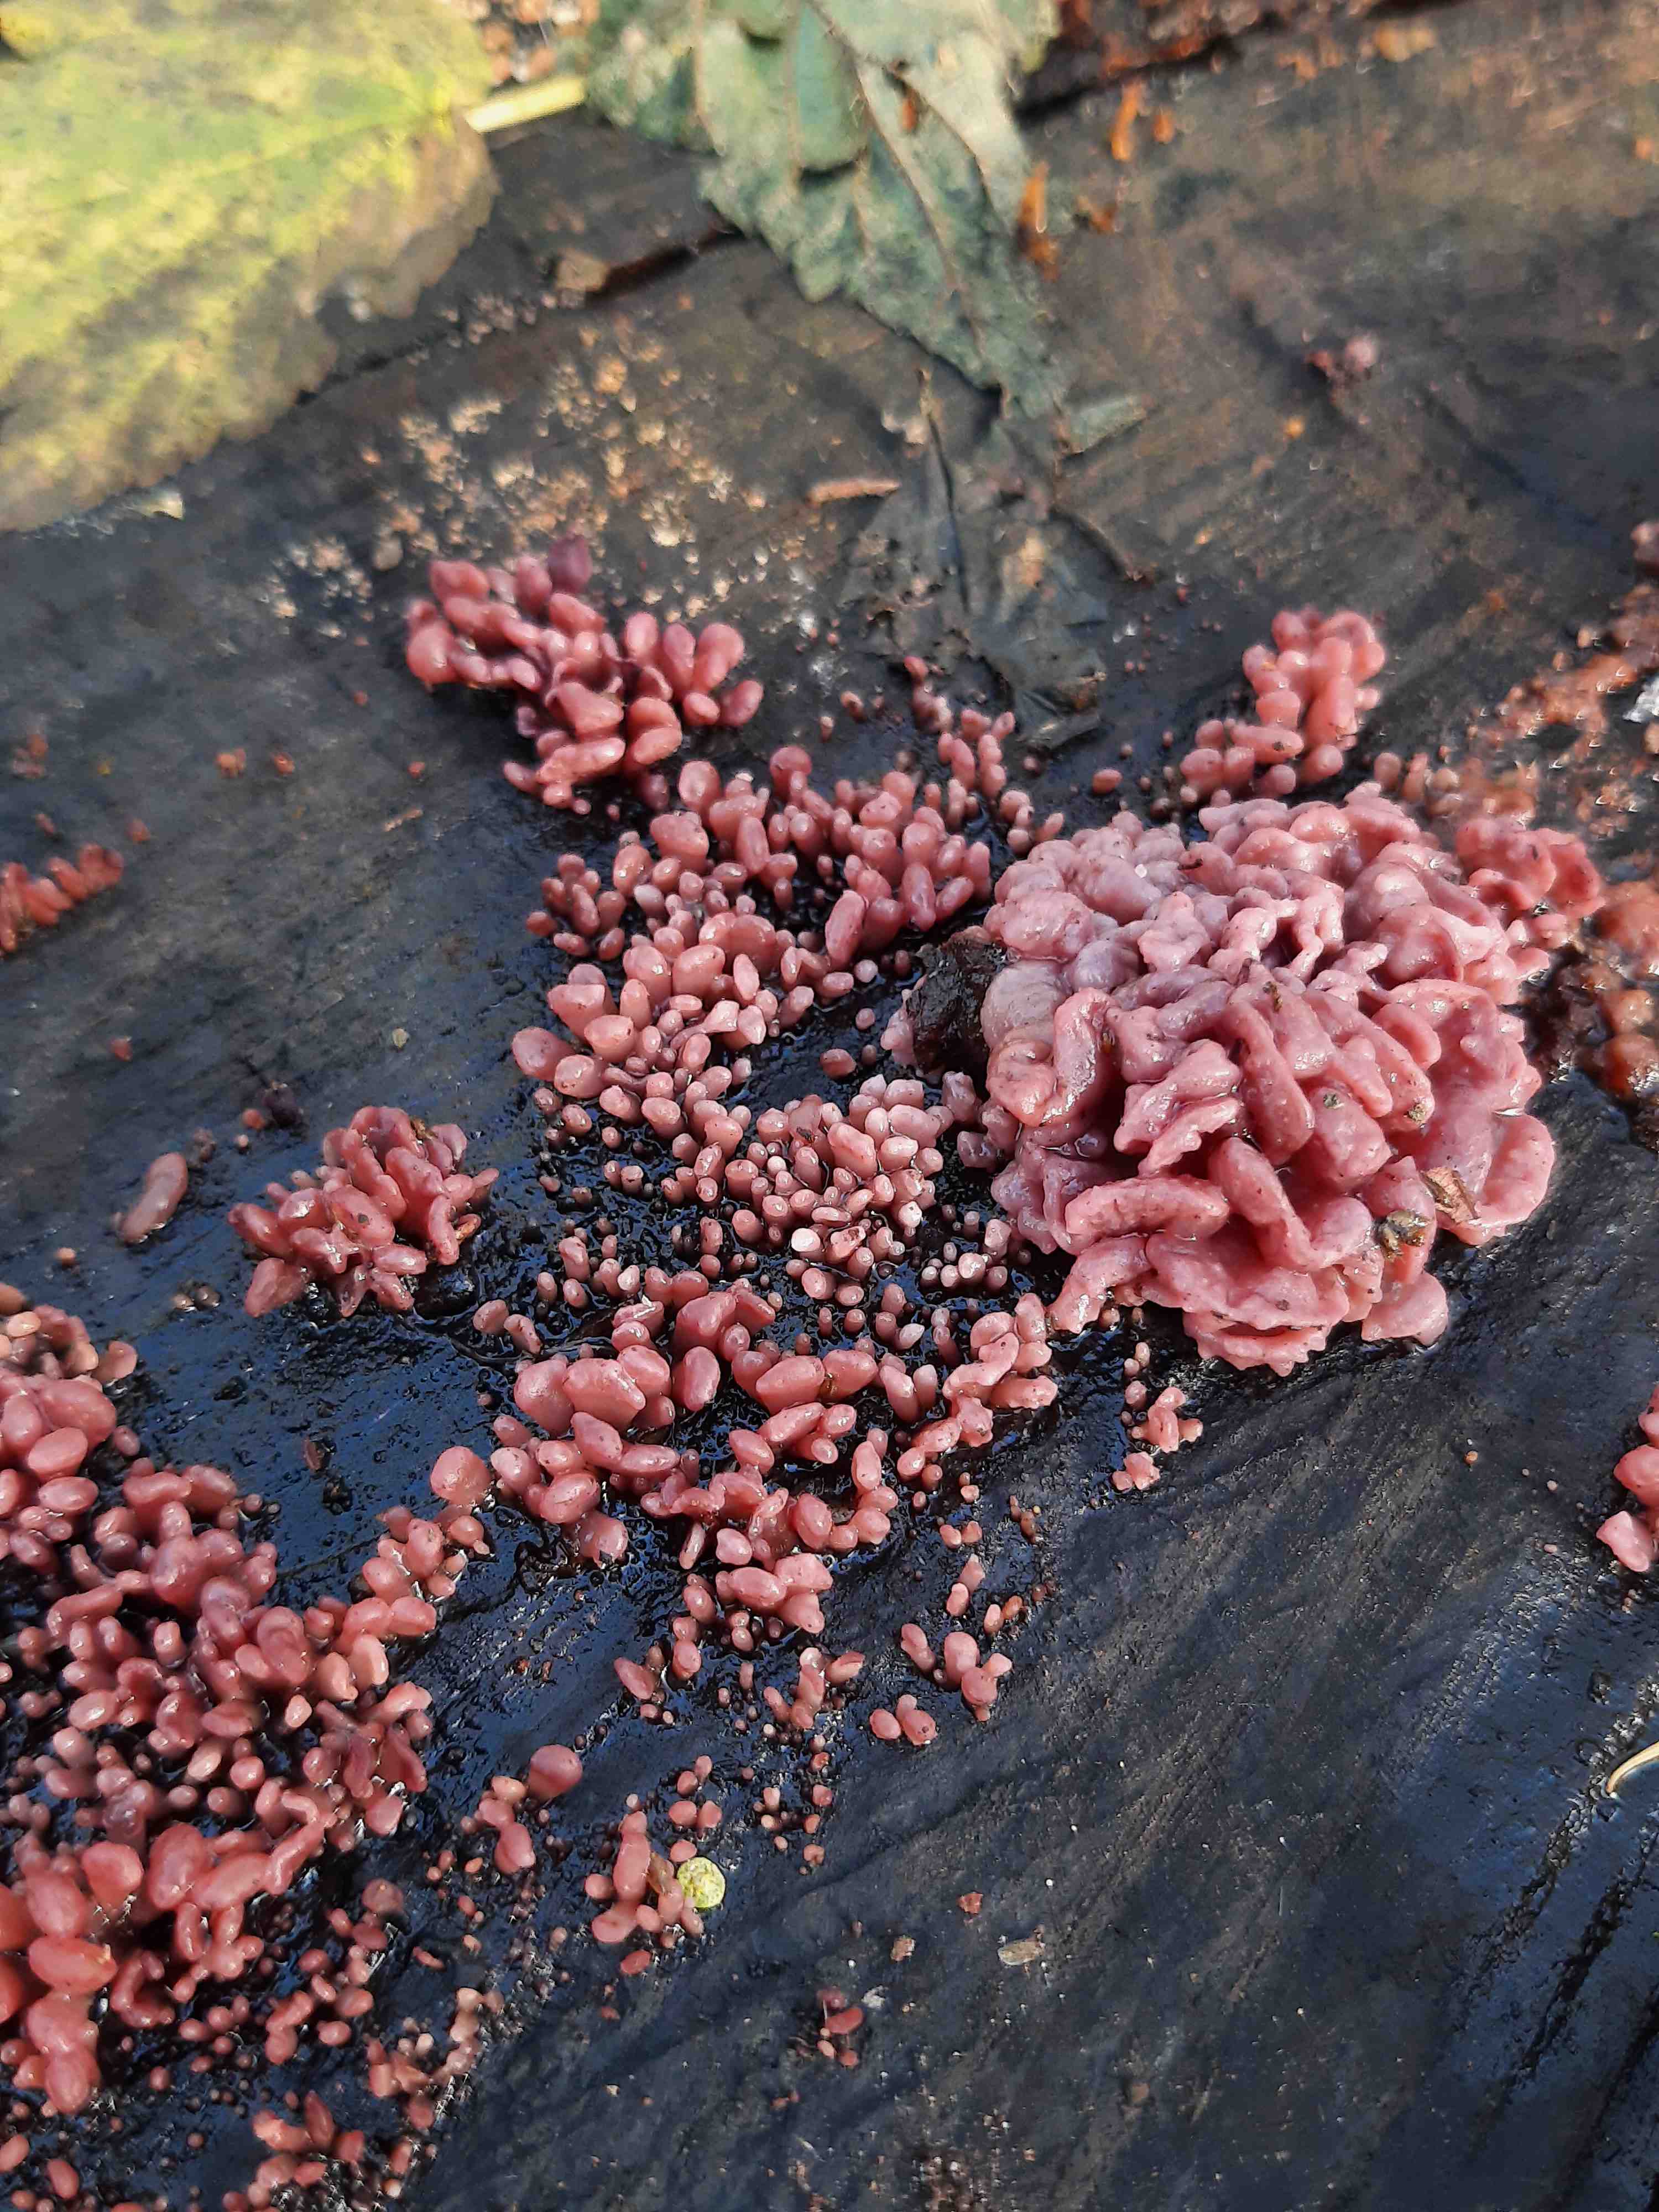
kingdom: Fungi
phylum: Ascomycota
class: Leotiomycetes
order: Helotiales
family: Gelatinodiscaceae
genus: Ascocoryne
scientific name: Ascocoryne sarcoides
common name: rødlilla sejskive
